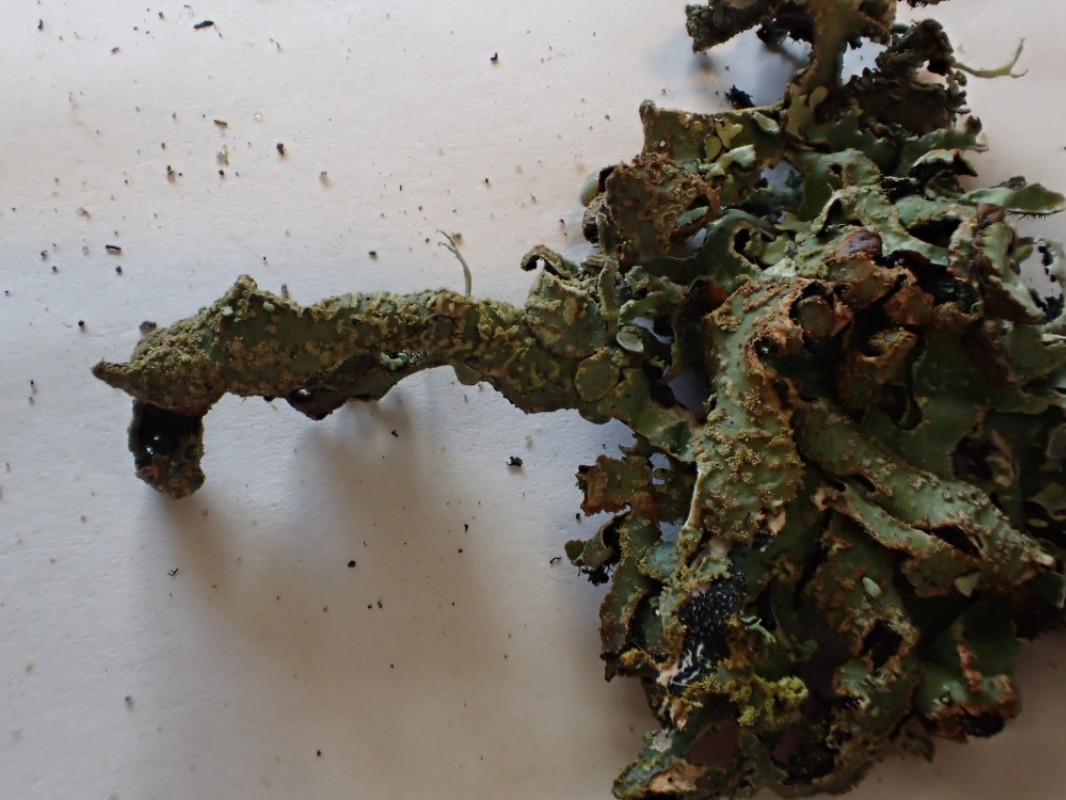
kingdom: Fungi
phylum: Ascomycota
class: Lecanoromycetes
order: Lecanorales
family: Parmeliaceae
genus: Parmelia
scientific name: Parmelia submontana
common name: langlobet skållav
